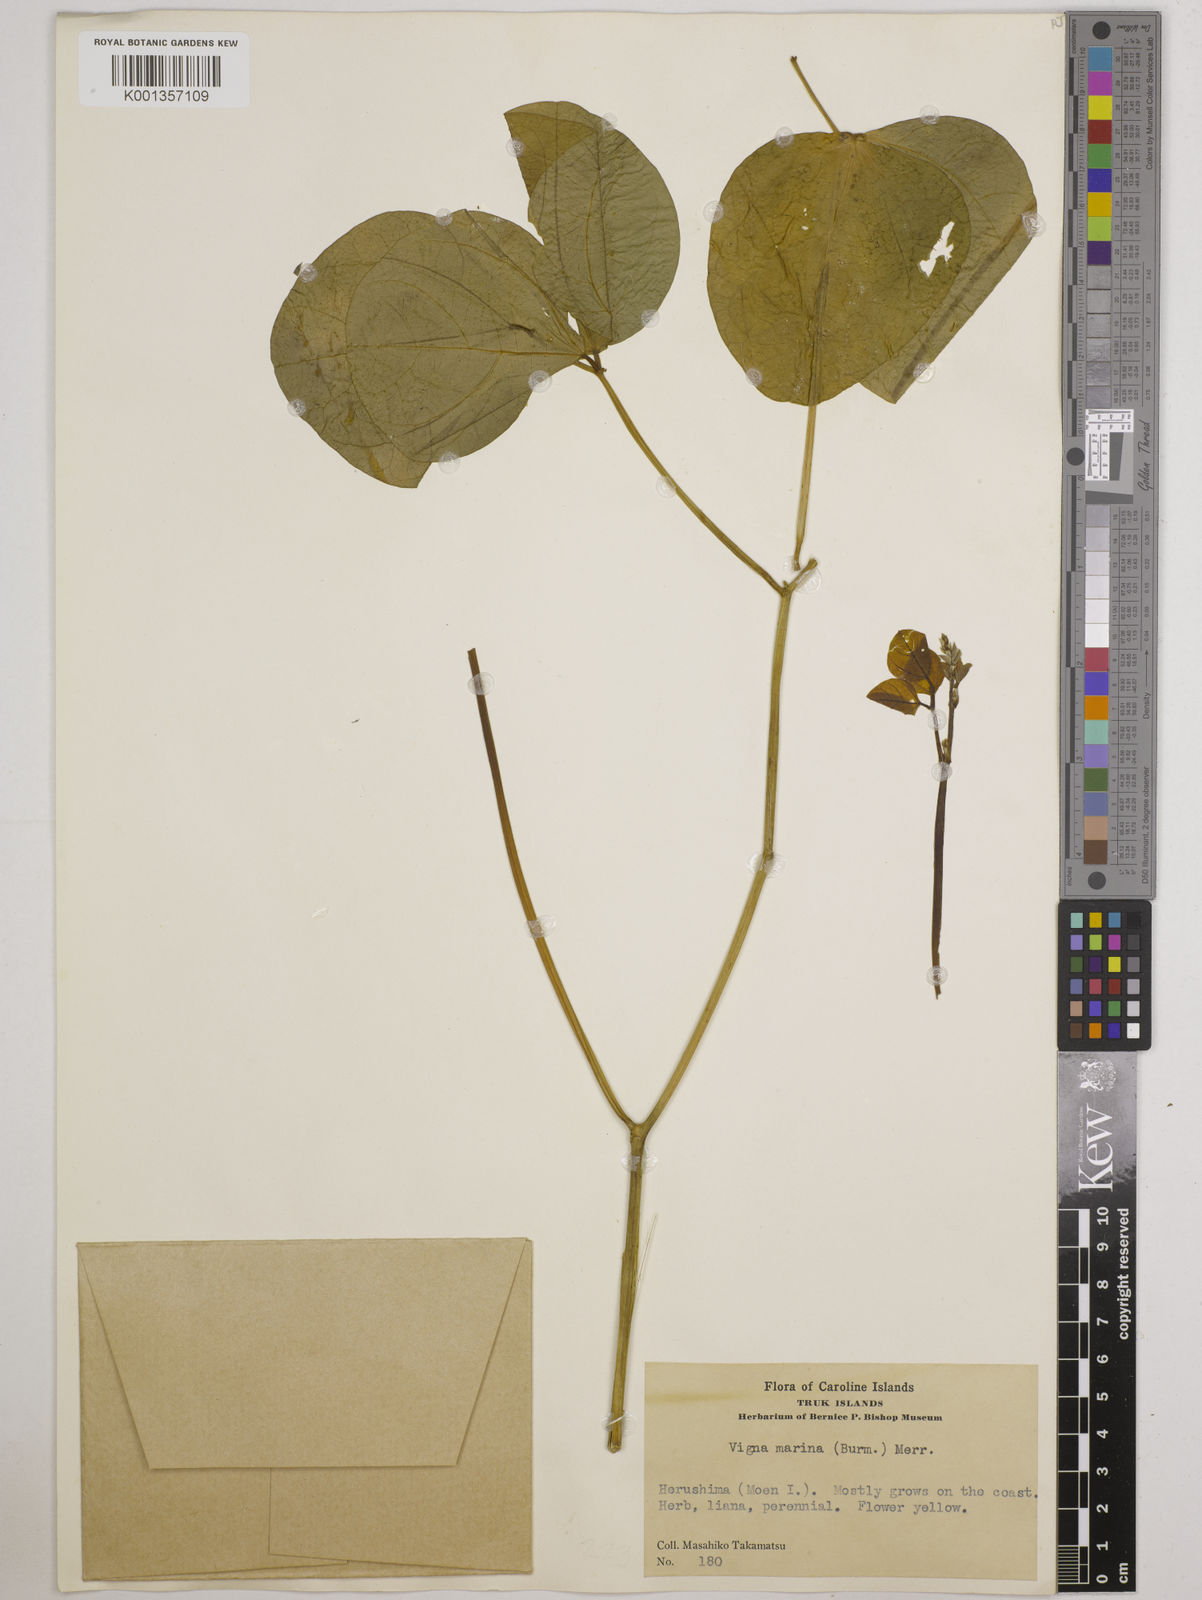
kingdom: Plantae
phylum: Tracheophyta
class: Magnoliopsida
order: Fabales
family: Fabaceae
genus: Vigna
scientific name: Vigna marina
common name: Dune-bean
